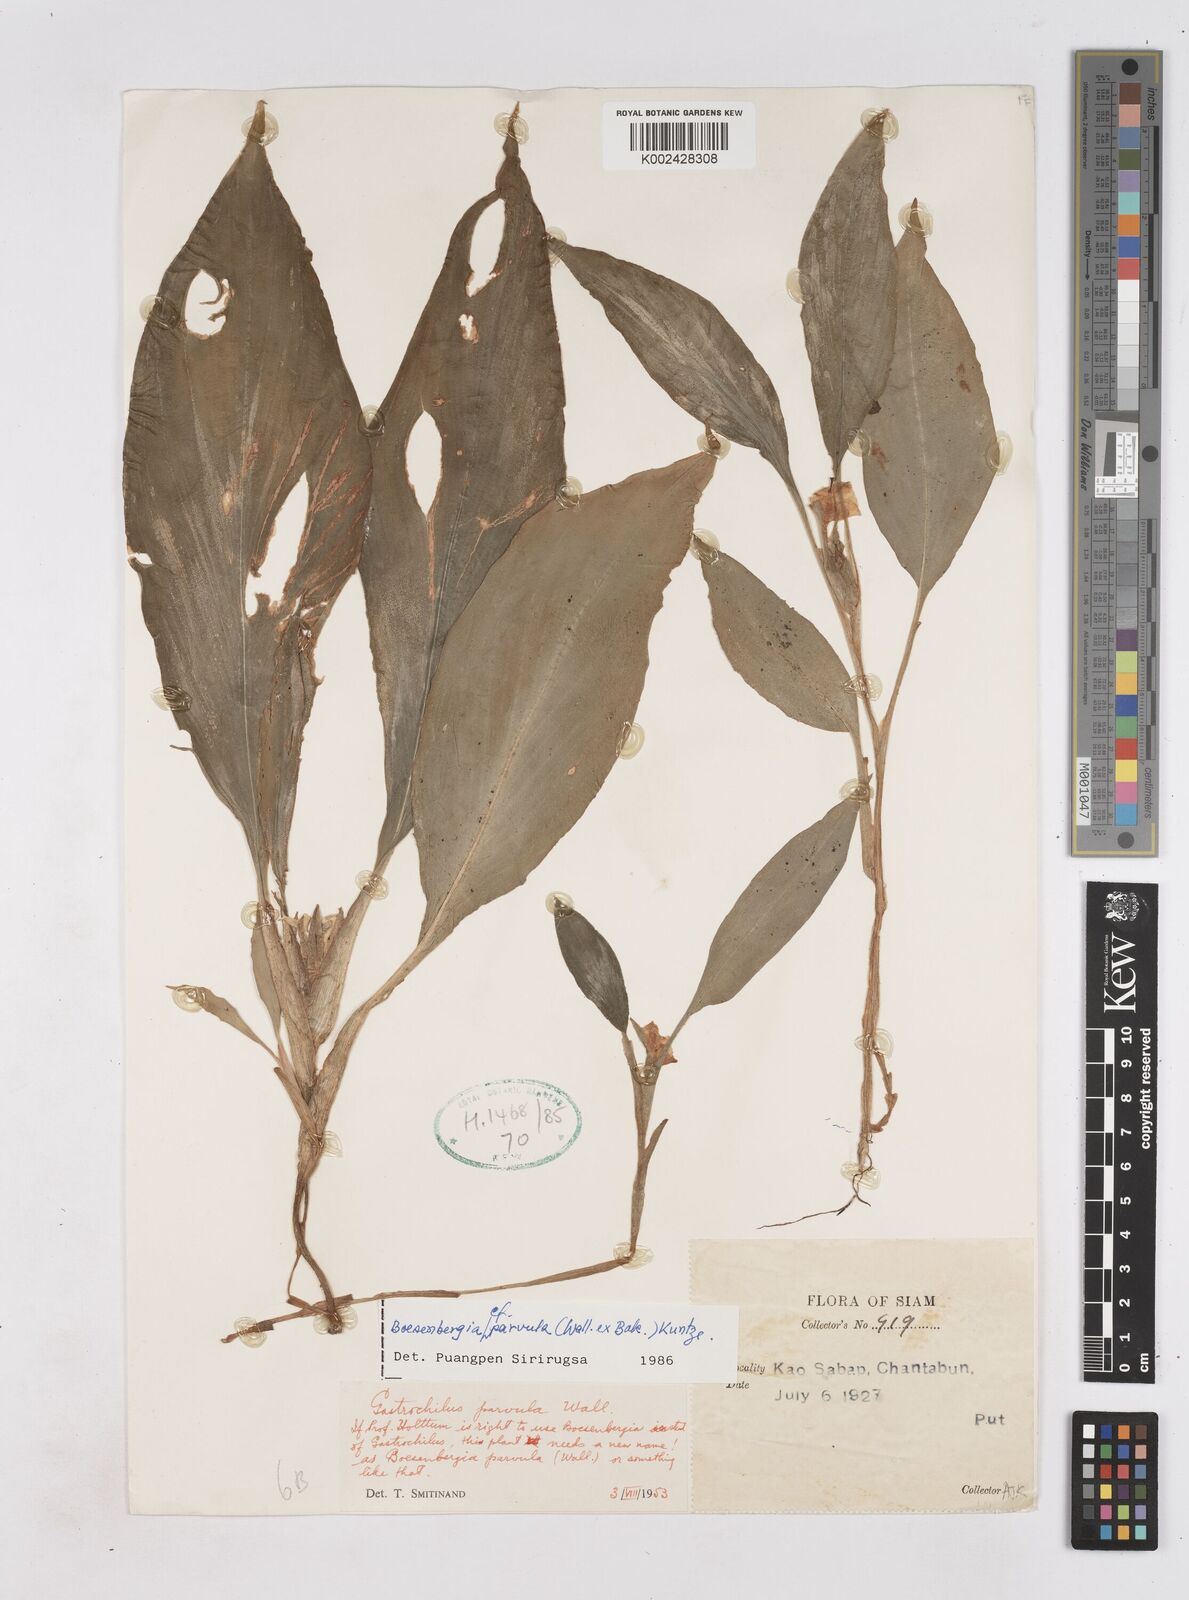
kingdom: Plantae
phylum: Tracheophyta
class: Liliopsida
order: Zingiberales
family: Zingiberaceae
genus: Boesenbergia
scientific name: Boesenbergia parvula
